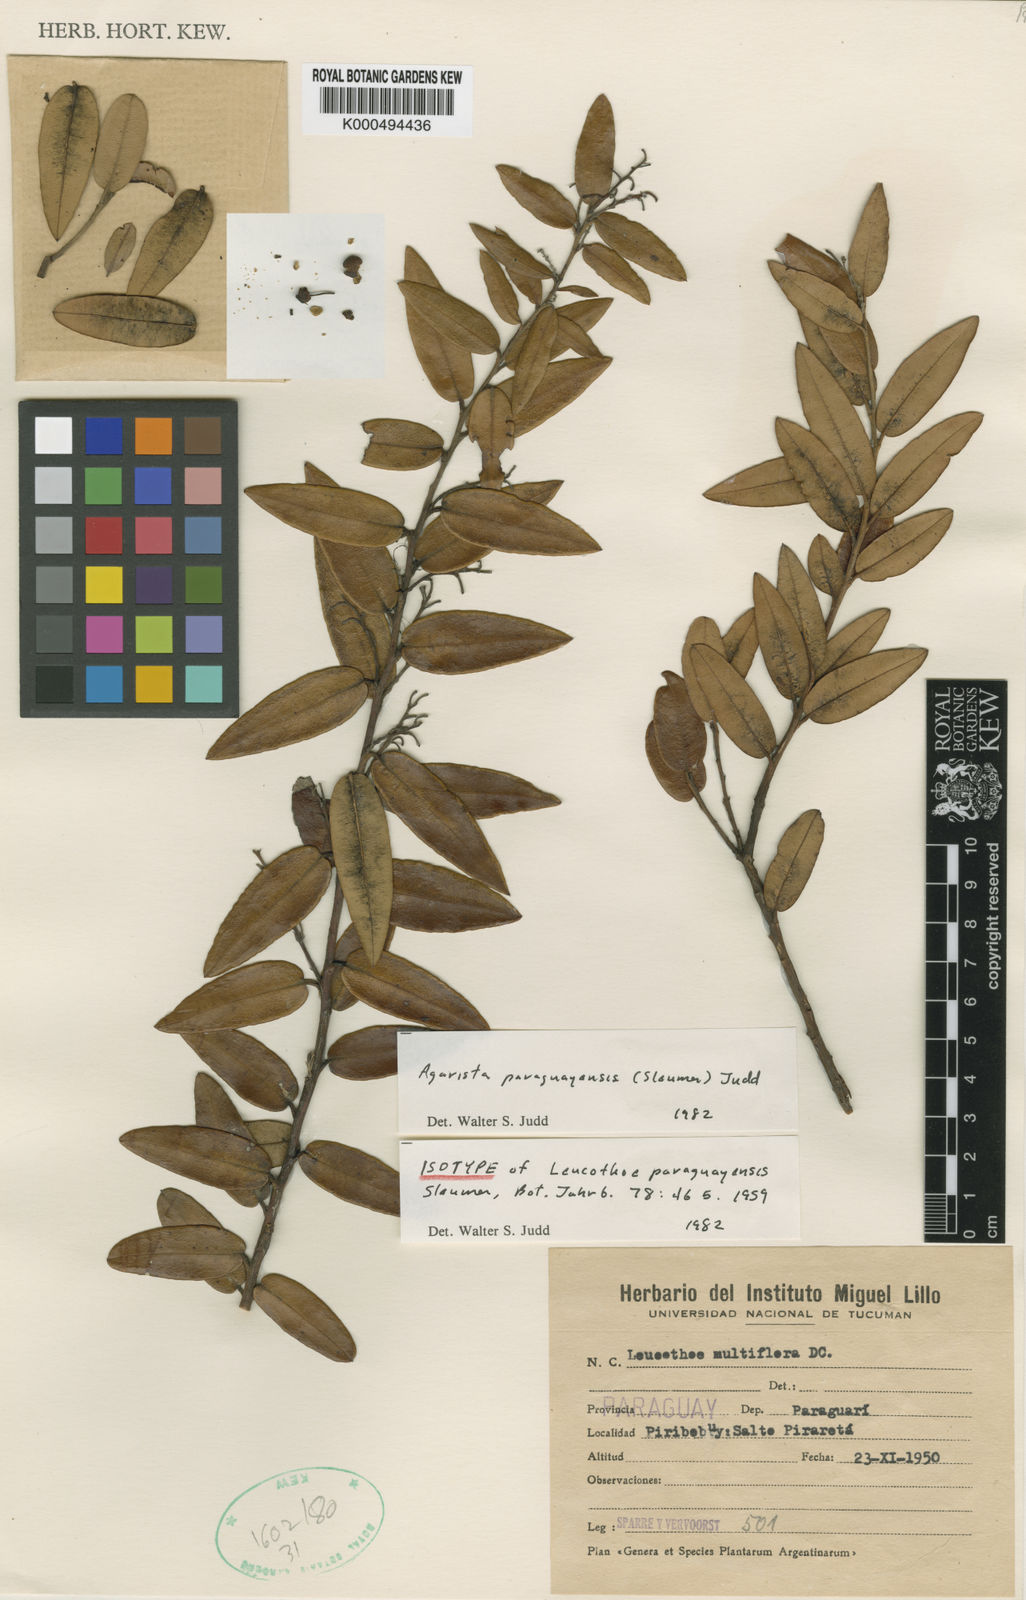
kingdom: Plantae
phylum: Tracheophyta
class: Magnoliopsida
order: Ericales
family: Ericaceae
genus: Agarista
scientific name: Agarista paraguayensis
